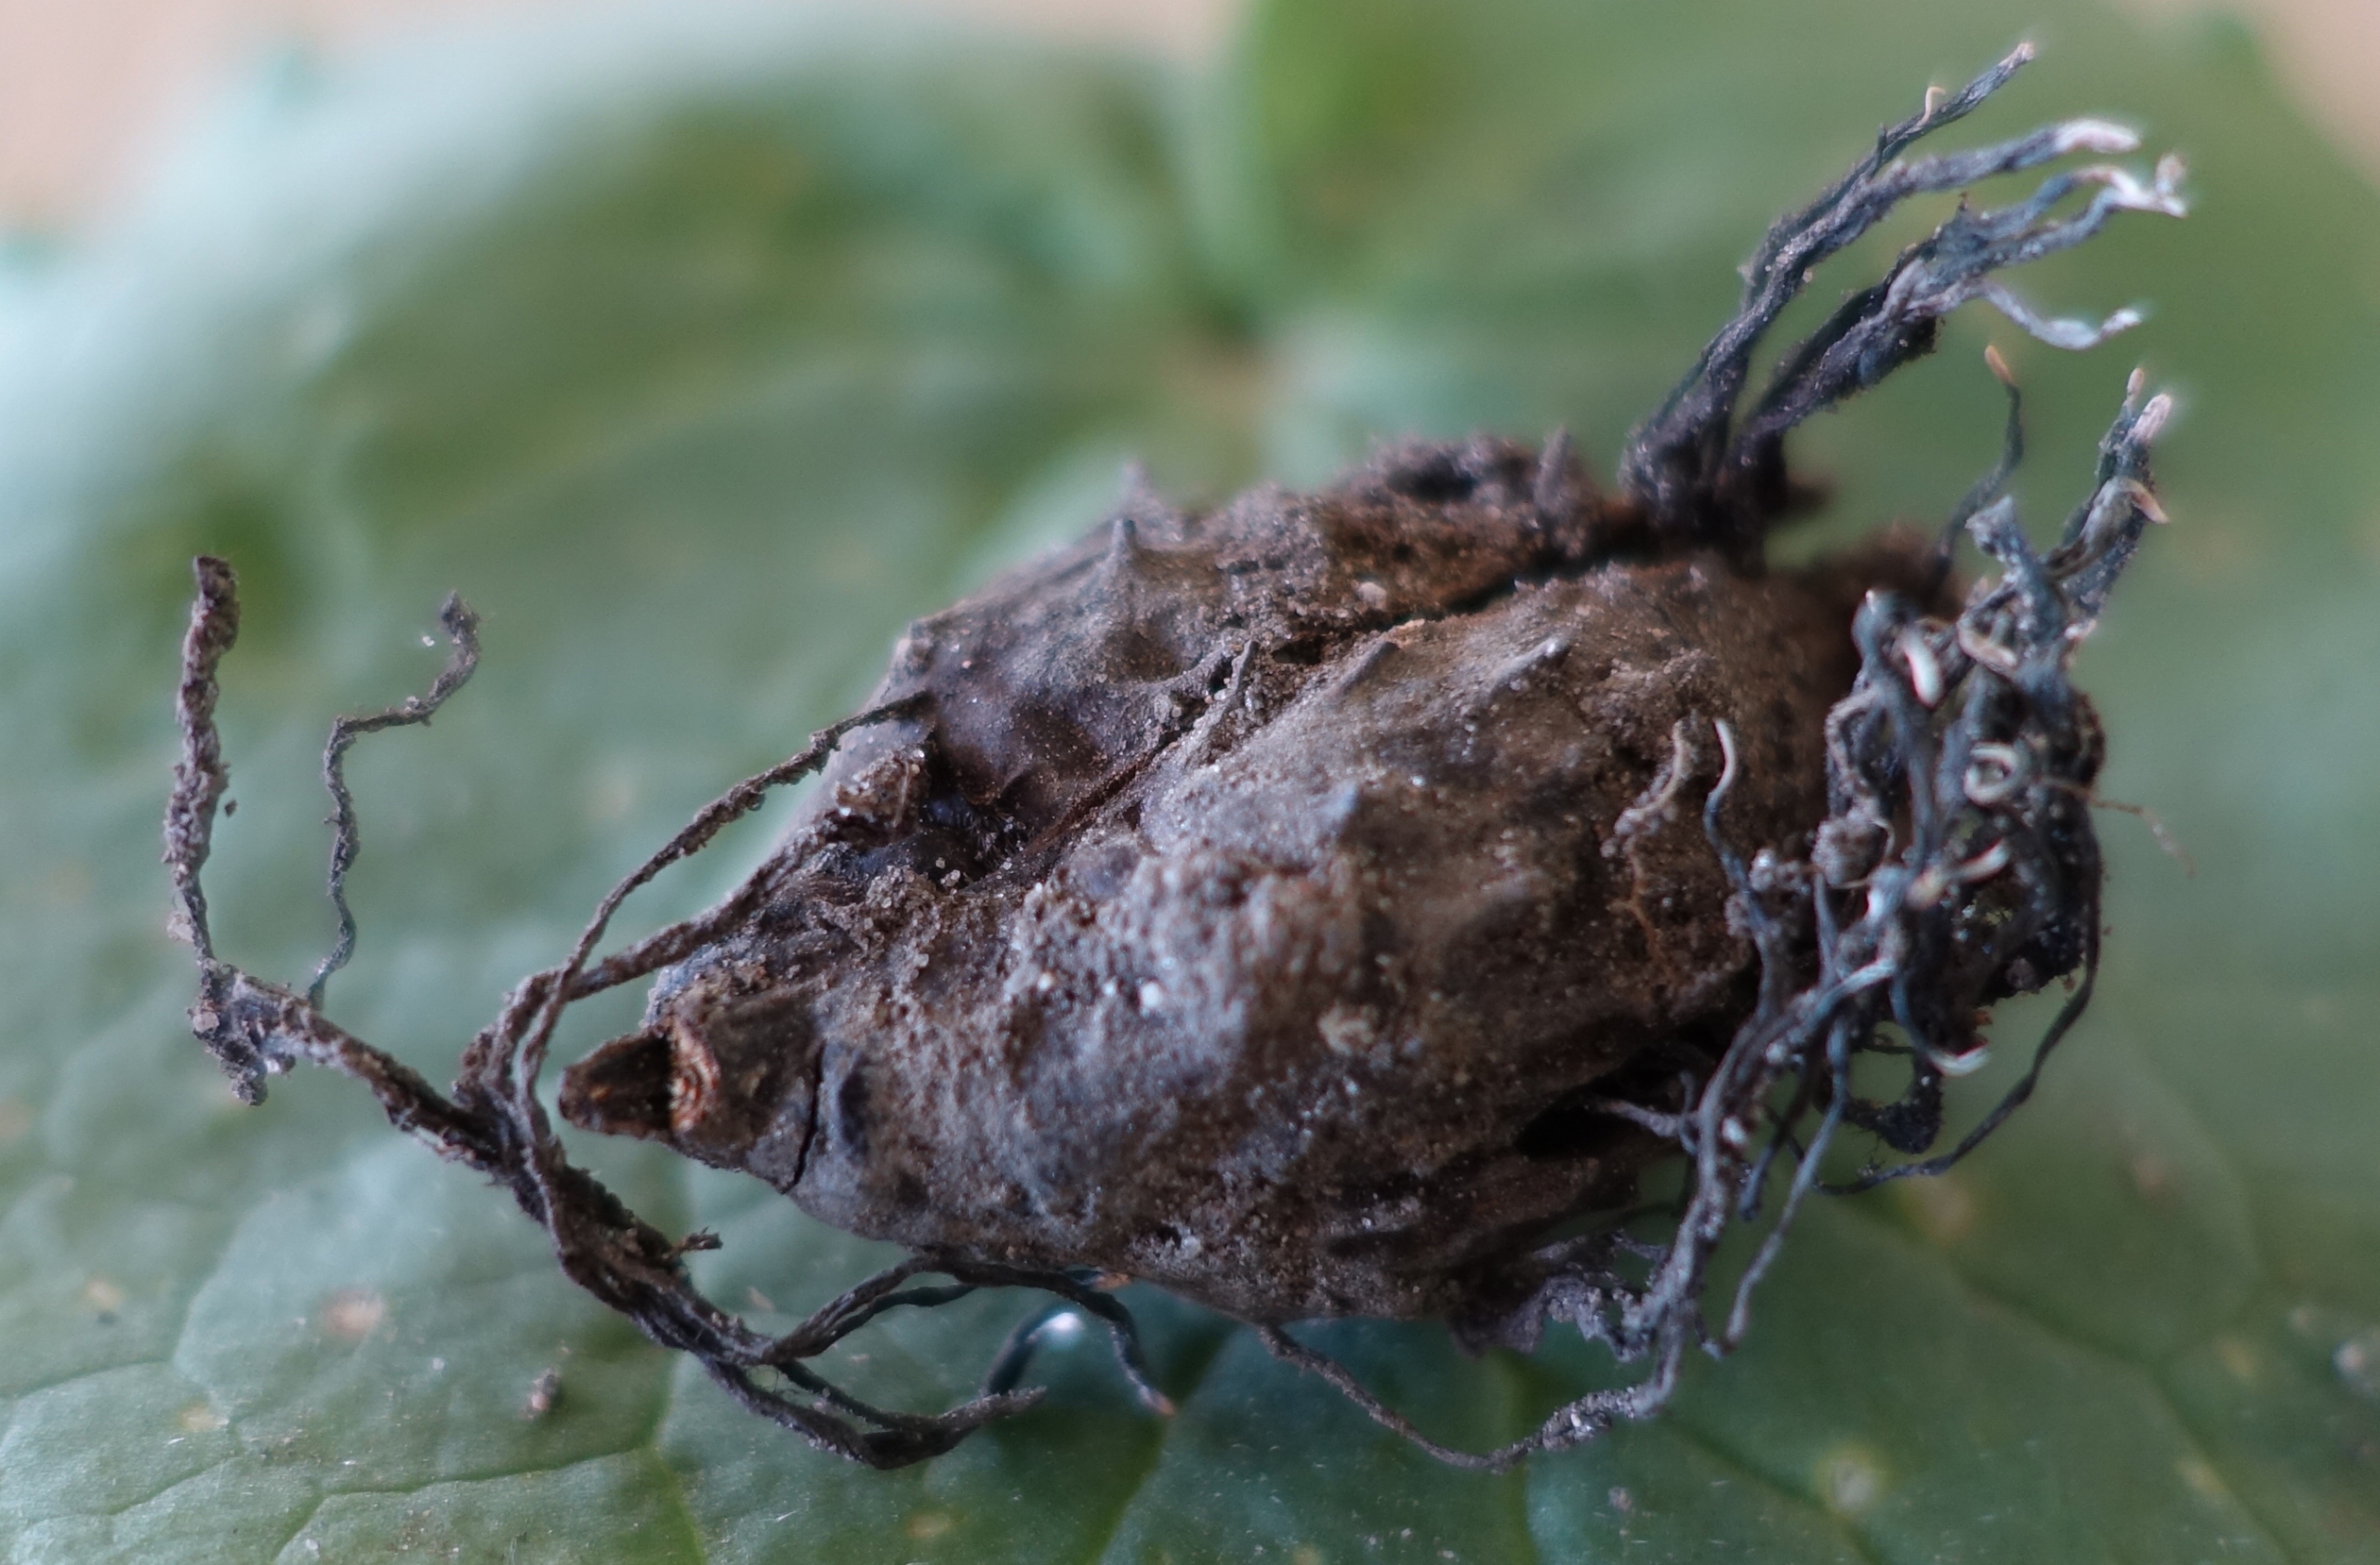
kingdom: Fungi
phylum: Ascomycota
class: Sordariomycetes
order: Xylariales
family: Xylariaceae
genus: Xylaria
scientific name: Xylaria carpophila
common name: Bogskål-stødsvamp
